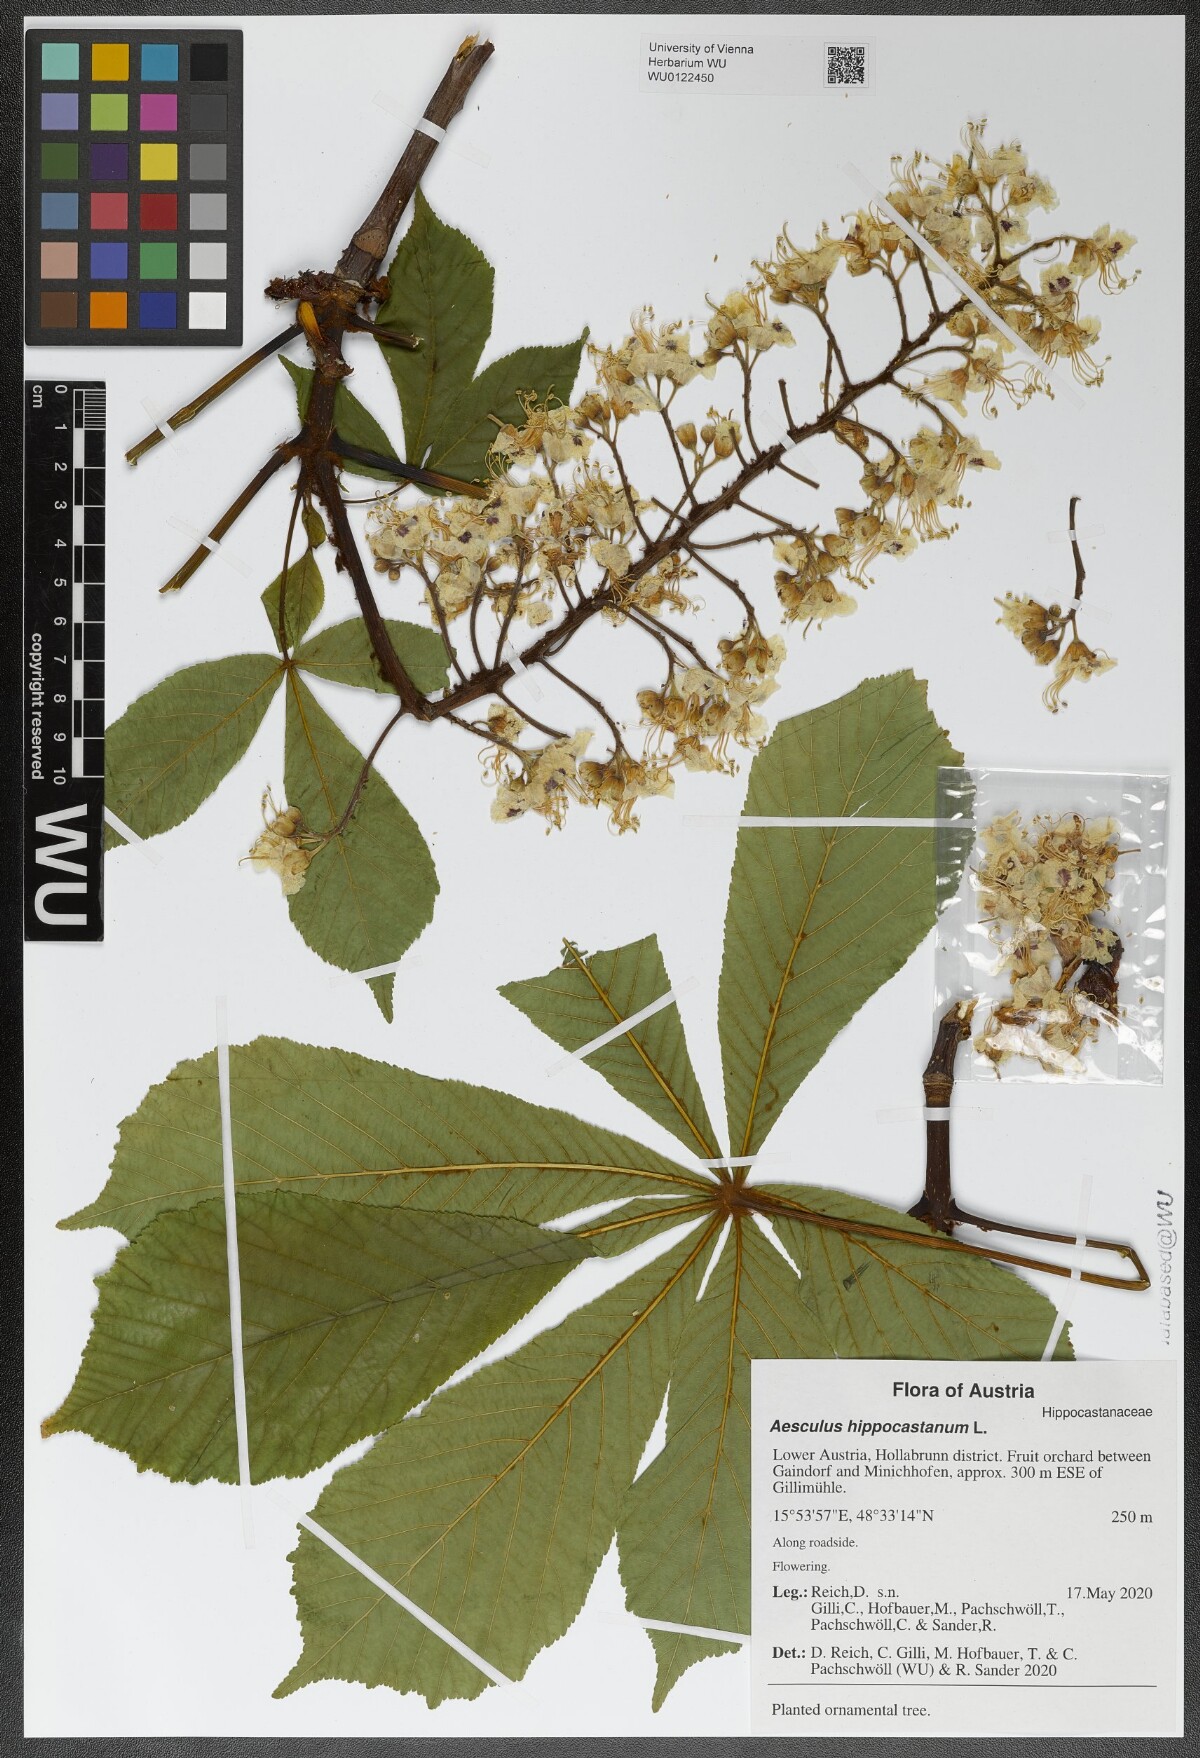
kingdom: Plantae
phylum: Tracheophyta
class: Magnoliopsida
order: Sapindales
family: Sapindaceae
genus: Aesculus
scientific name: Aesculus hippocastanum
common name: Horse-chestnut
